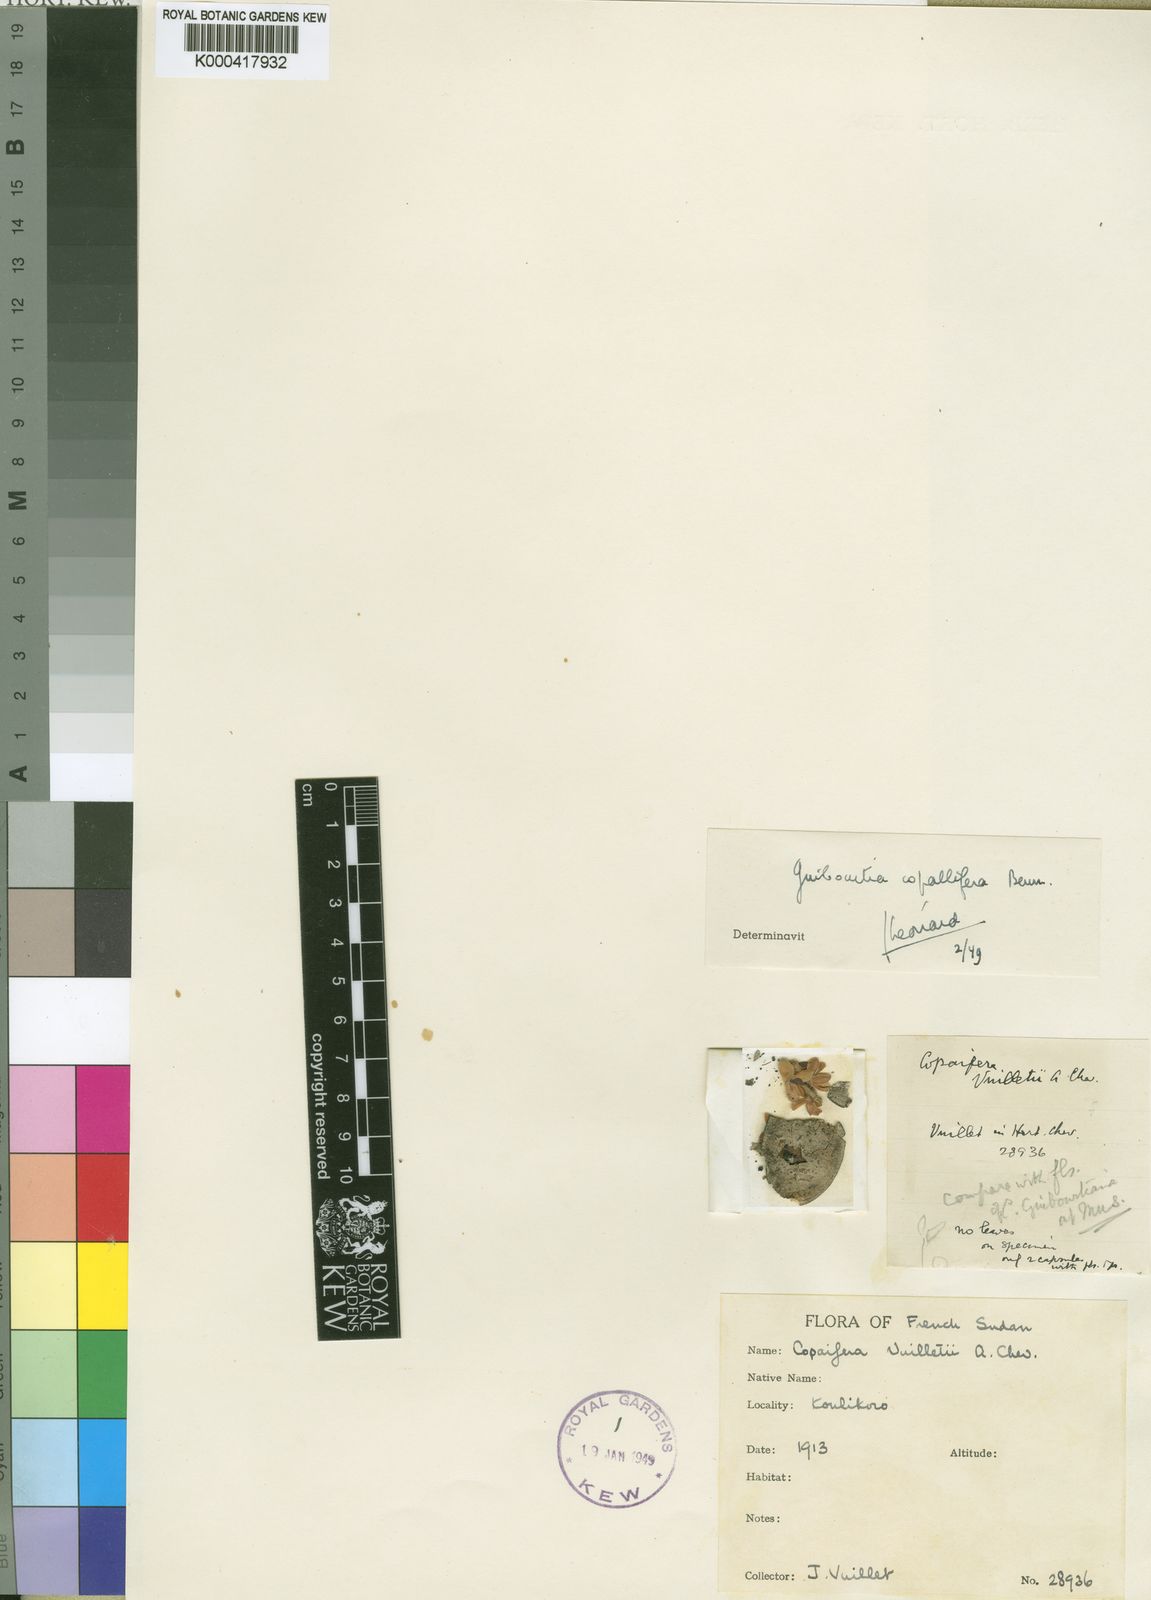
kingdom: Plantae
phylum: Tracheophyta
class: Magnoliopsida
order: Fabales
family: Fabaceae
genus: Guibourtia
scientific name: Guibourtia copallifera
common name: Kobo tree
